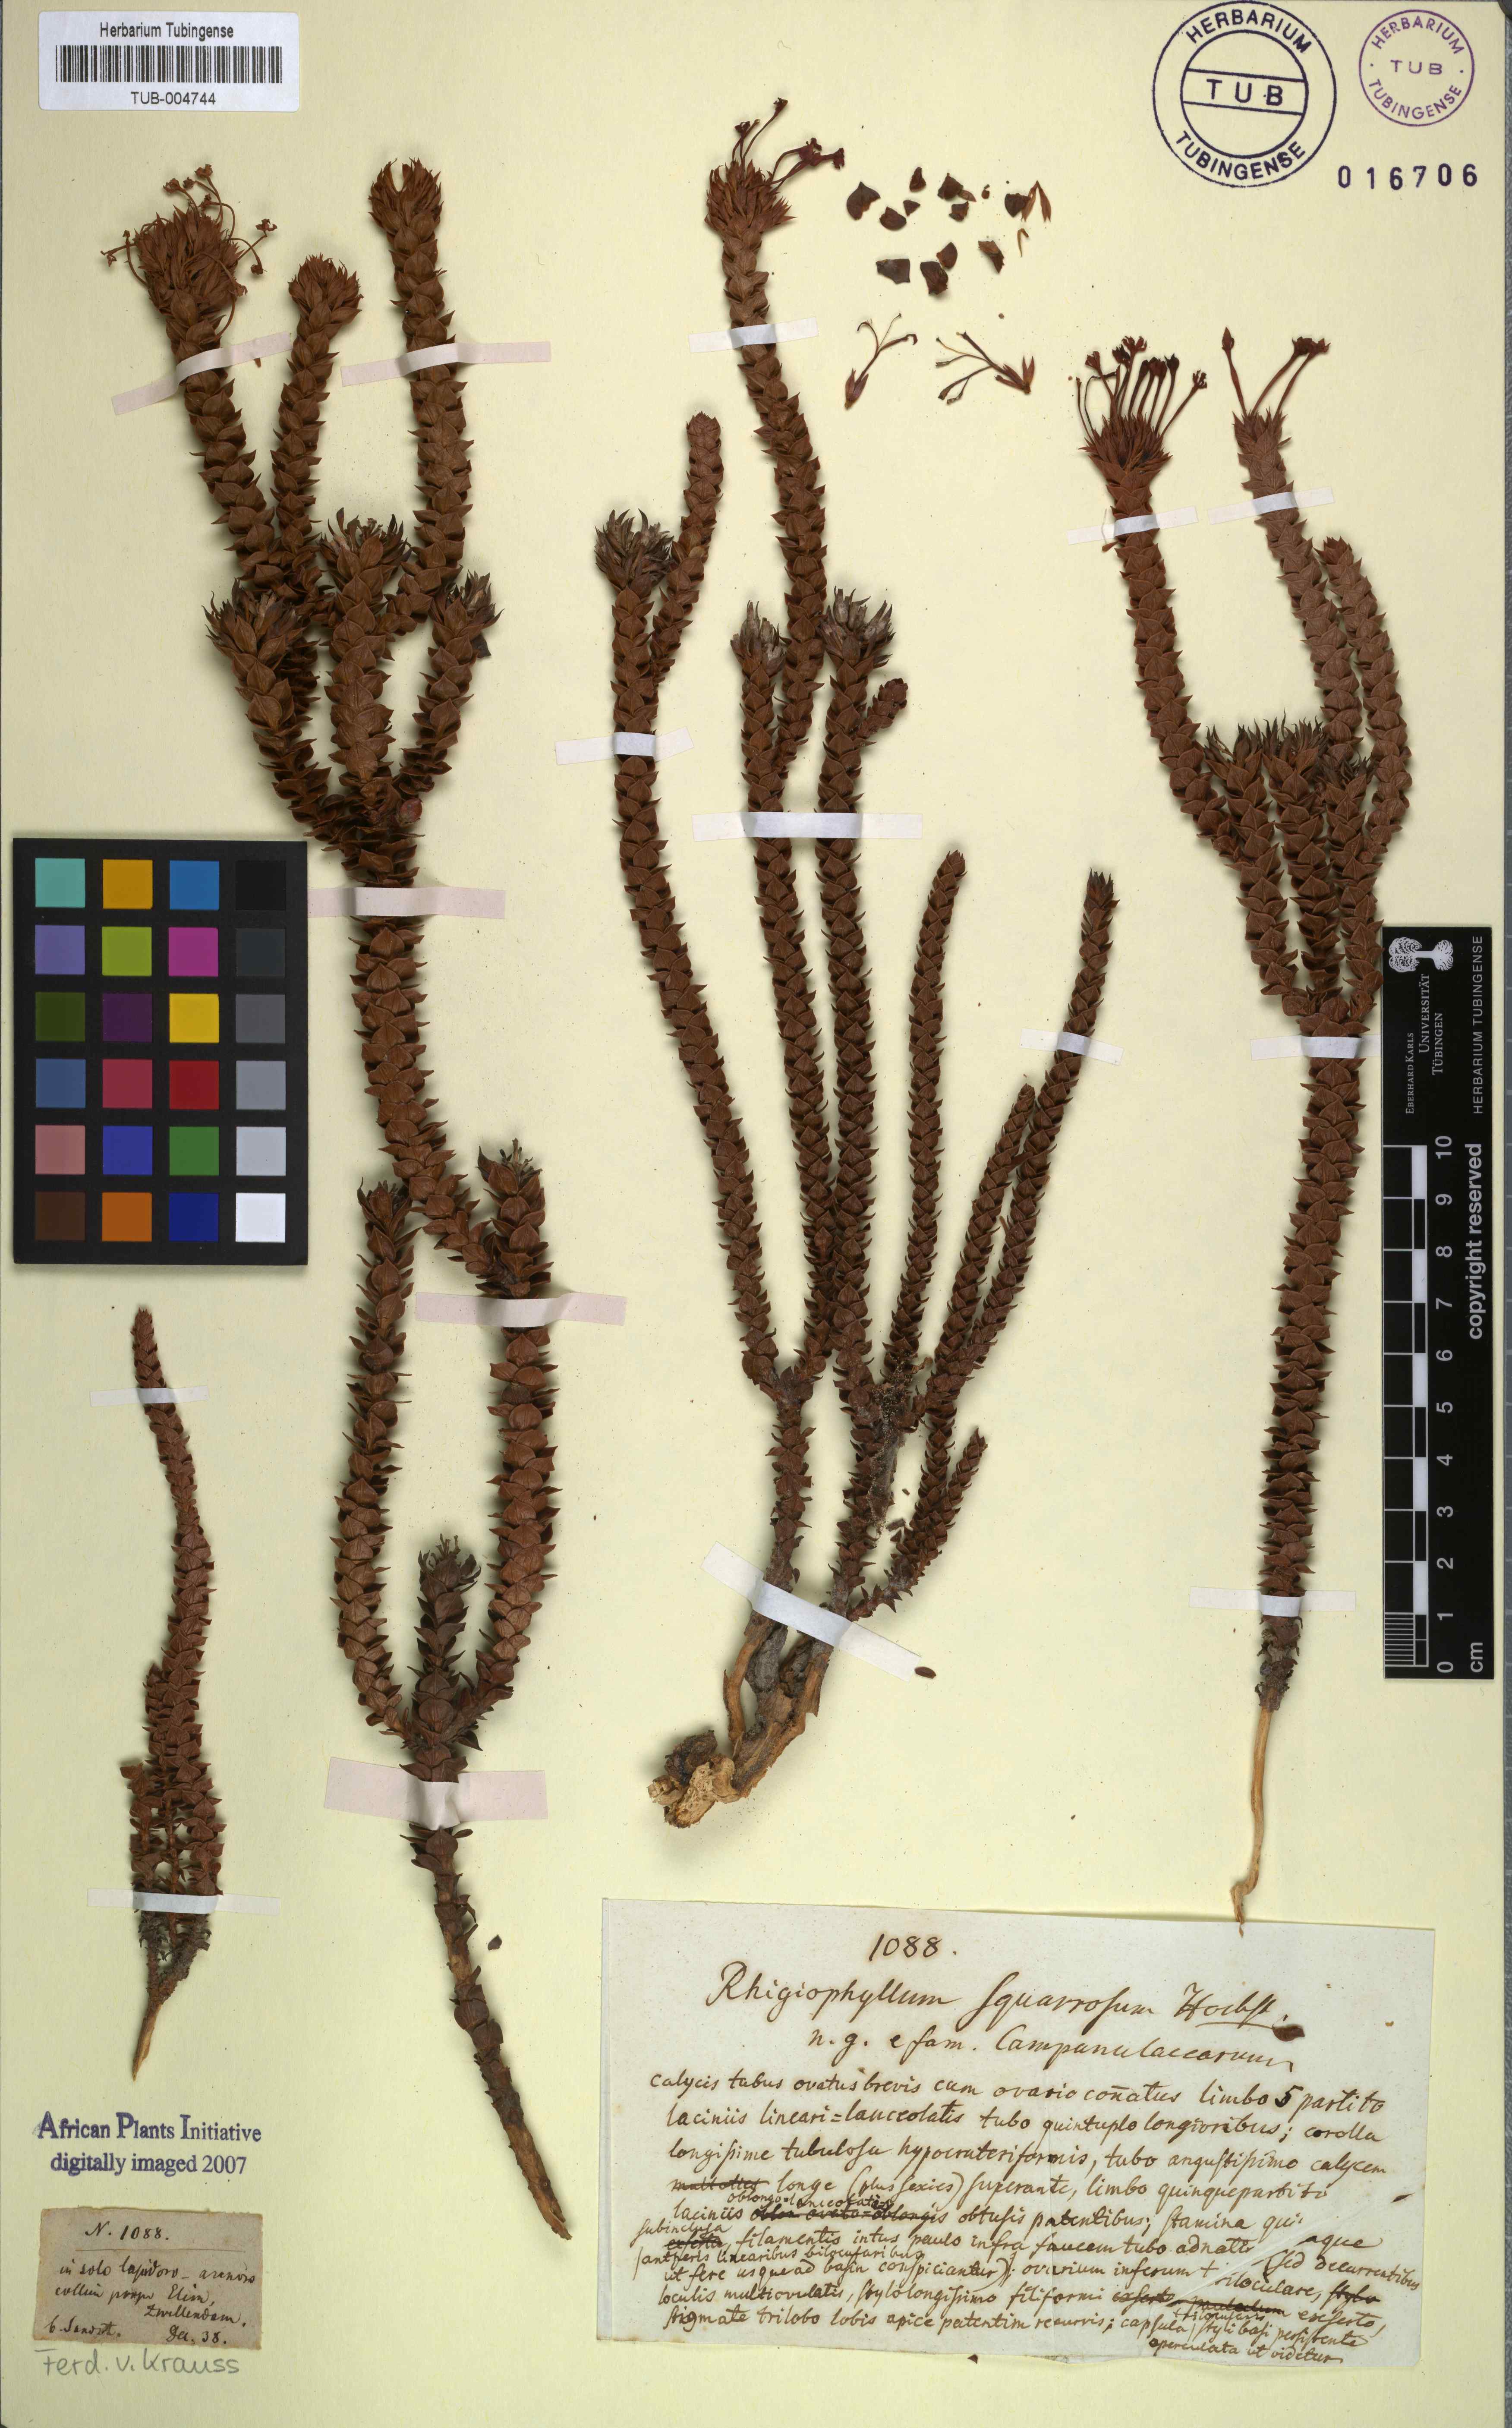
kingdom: Plantae
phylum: Tracheophyta
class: Magnoliopsida
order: Asterales
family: Campanulaceae
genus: Rhigiophyllum
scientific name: Rhigiophyllum squarrosum
